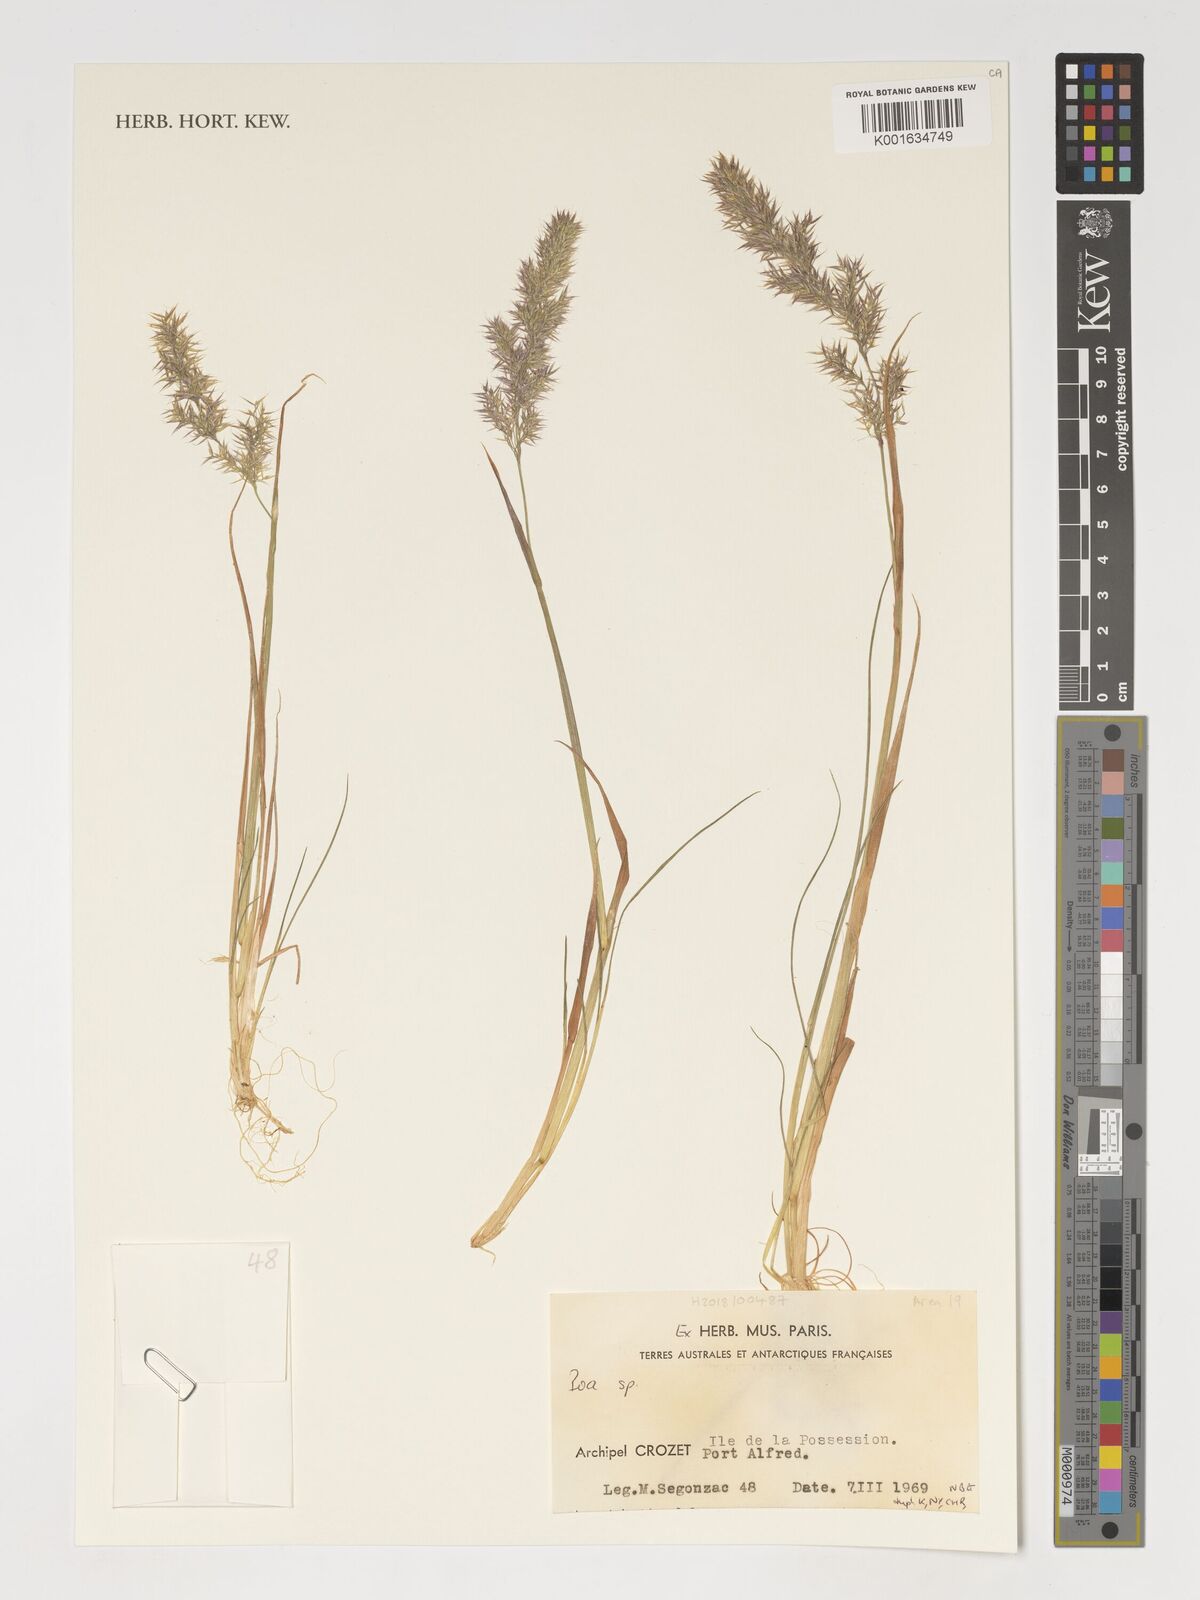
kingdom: Plantae
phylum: Tracheophyta
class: Liliopsida
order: Poales
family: Poaceae
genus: Poa
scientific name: Poa
